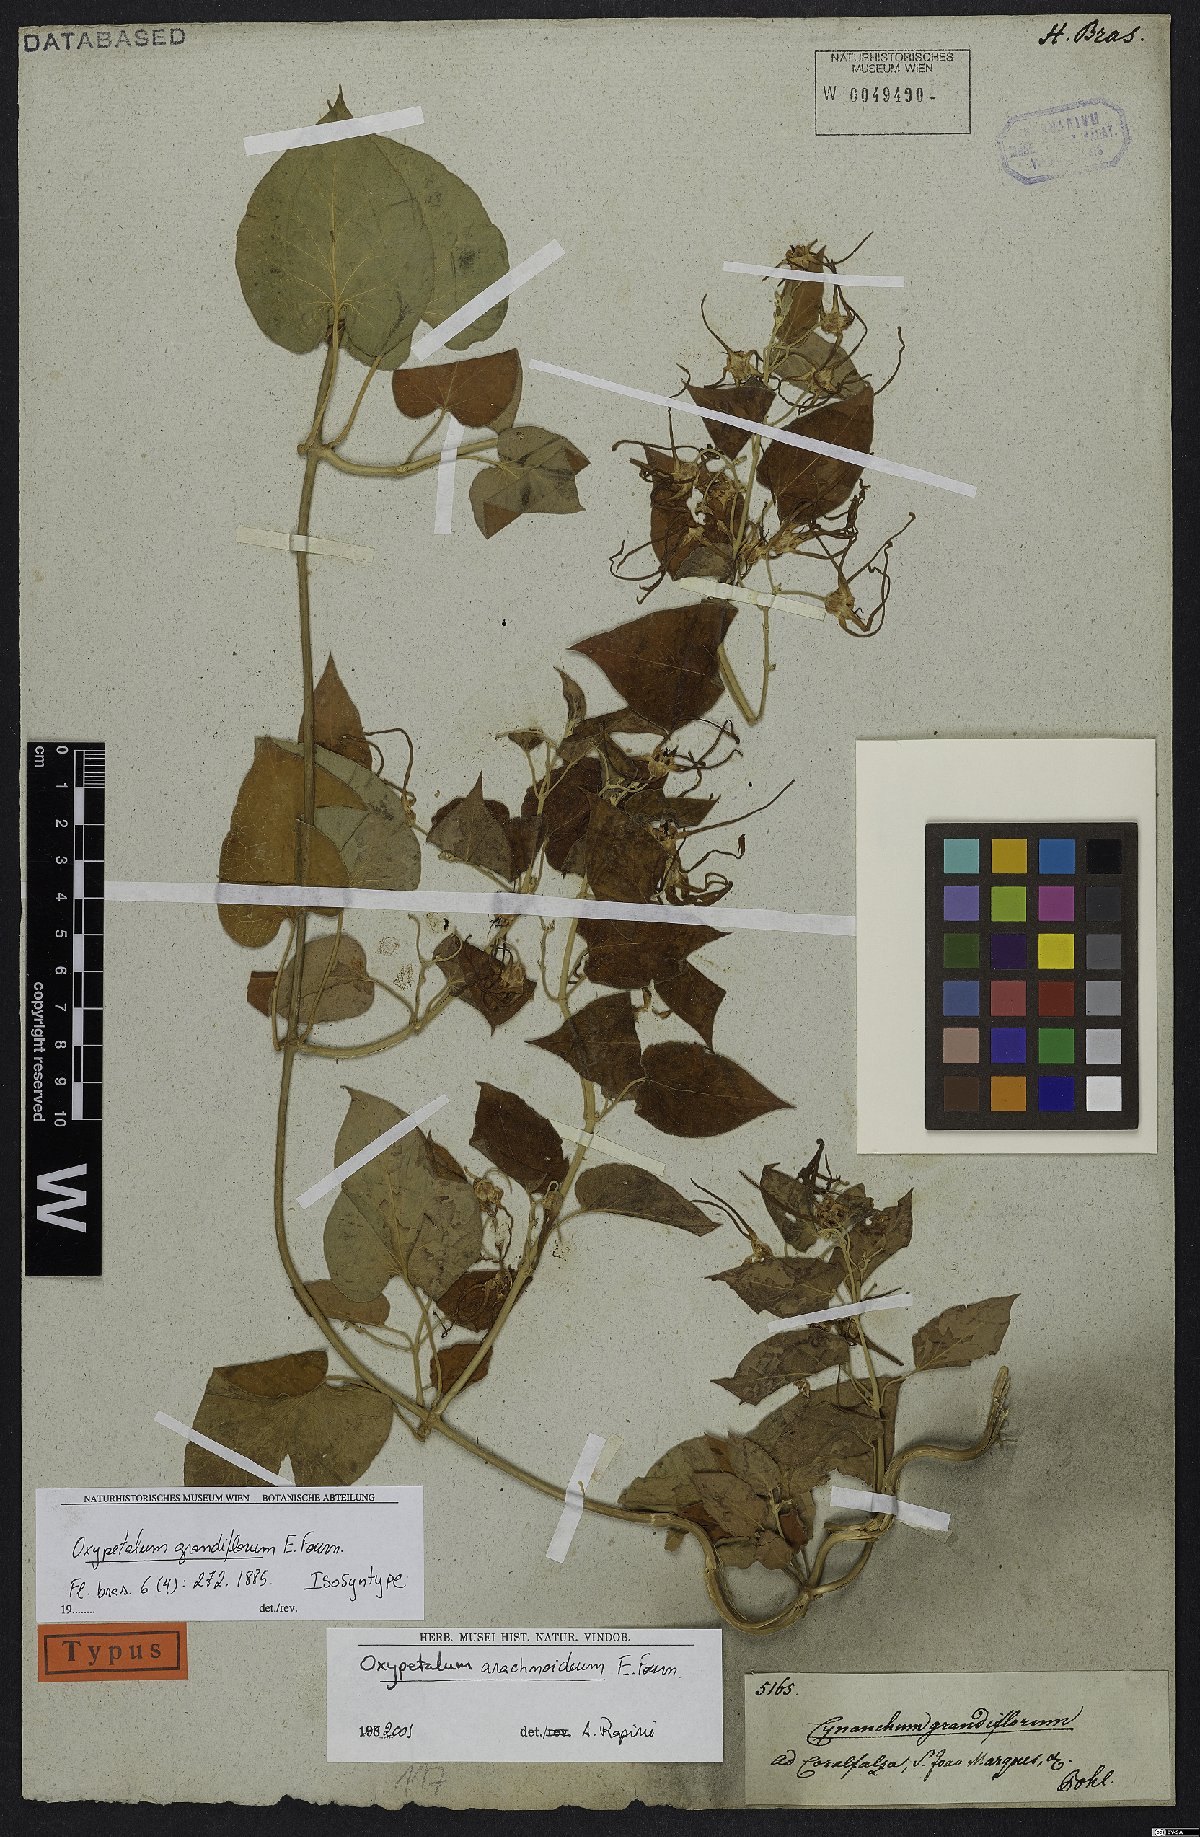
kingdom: Plantae
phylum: Tracheophyta
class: Magnoliopsida
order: Gentianales
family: Apocynaceae
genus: Oxypetalum
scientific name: Oxypetalum arachnoideum
